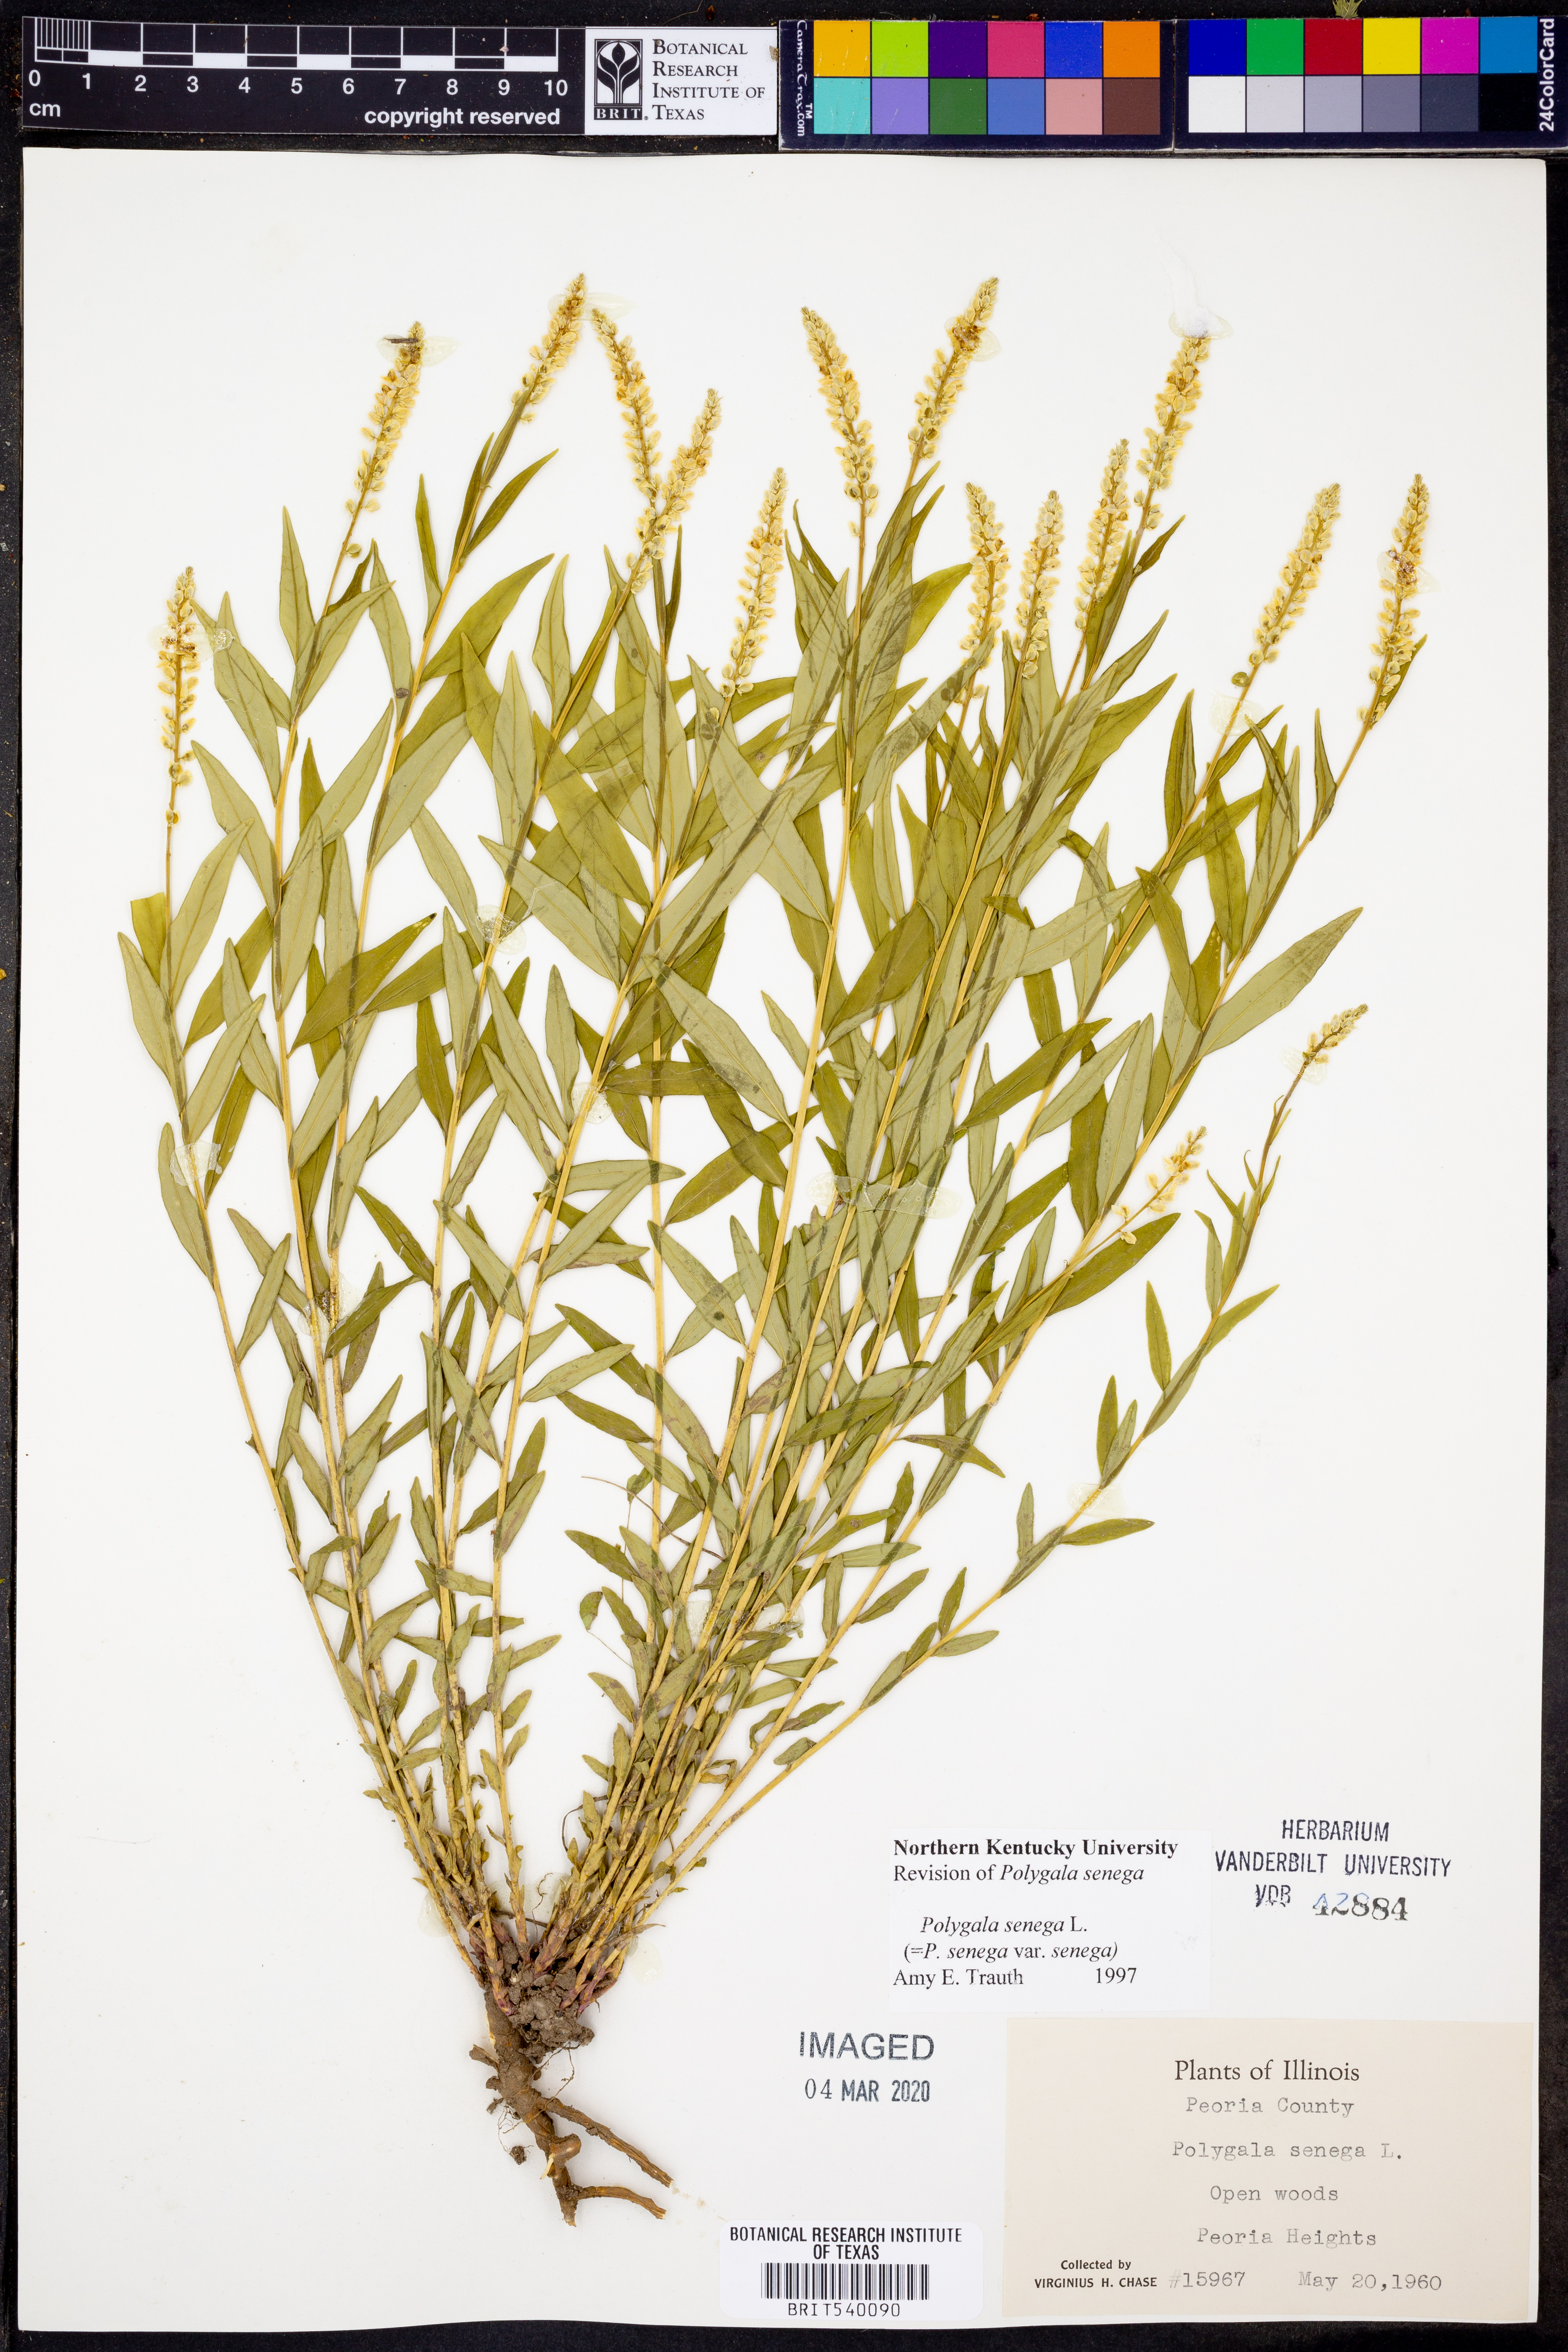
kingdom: Plantae
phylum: Tracheophyta
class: Magnoliopsida
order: Fabales
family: Polygalaceae
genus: Polygala
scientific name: Polygala senega
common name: Seneca snakeroot
